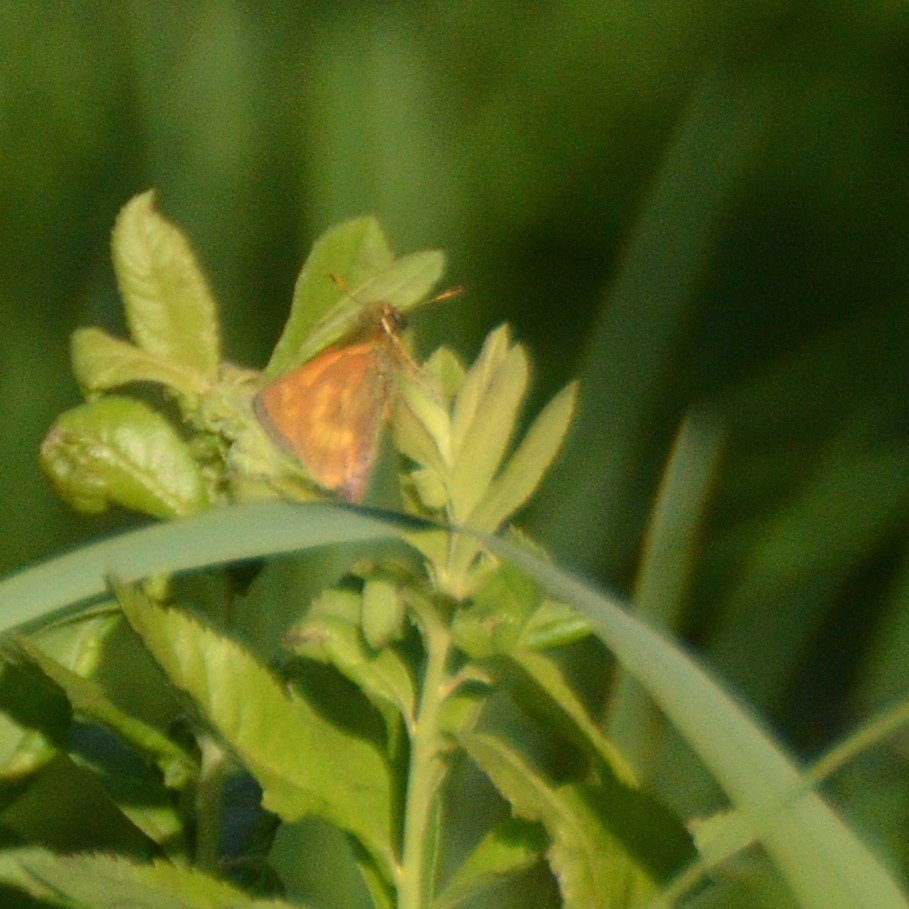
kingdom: Animalia
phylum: Arthropoda
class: Insecta
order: Lepidoptera
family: Hesperiidae
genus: Polites
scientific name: Polites
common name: Long Dash Skipper
